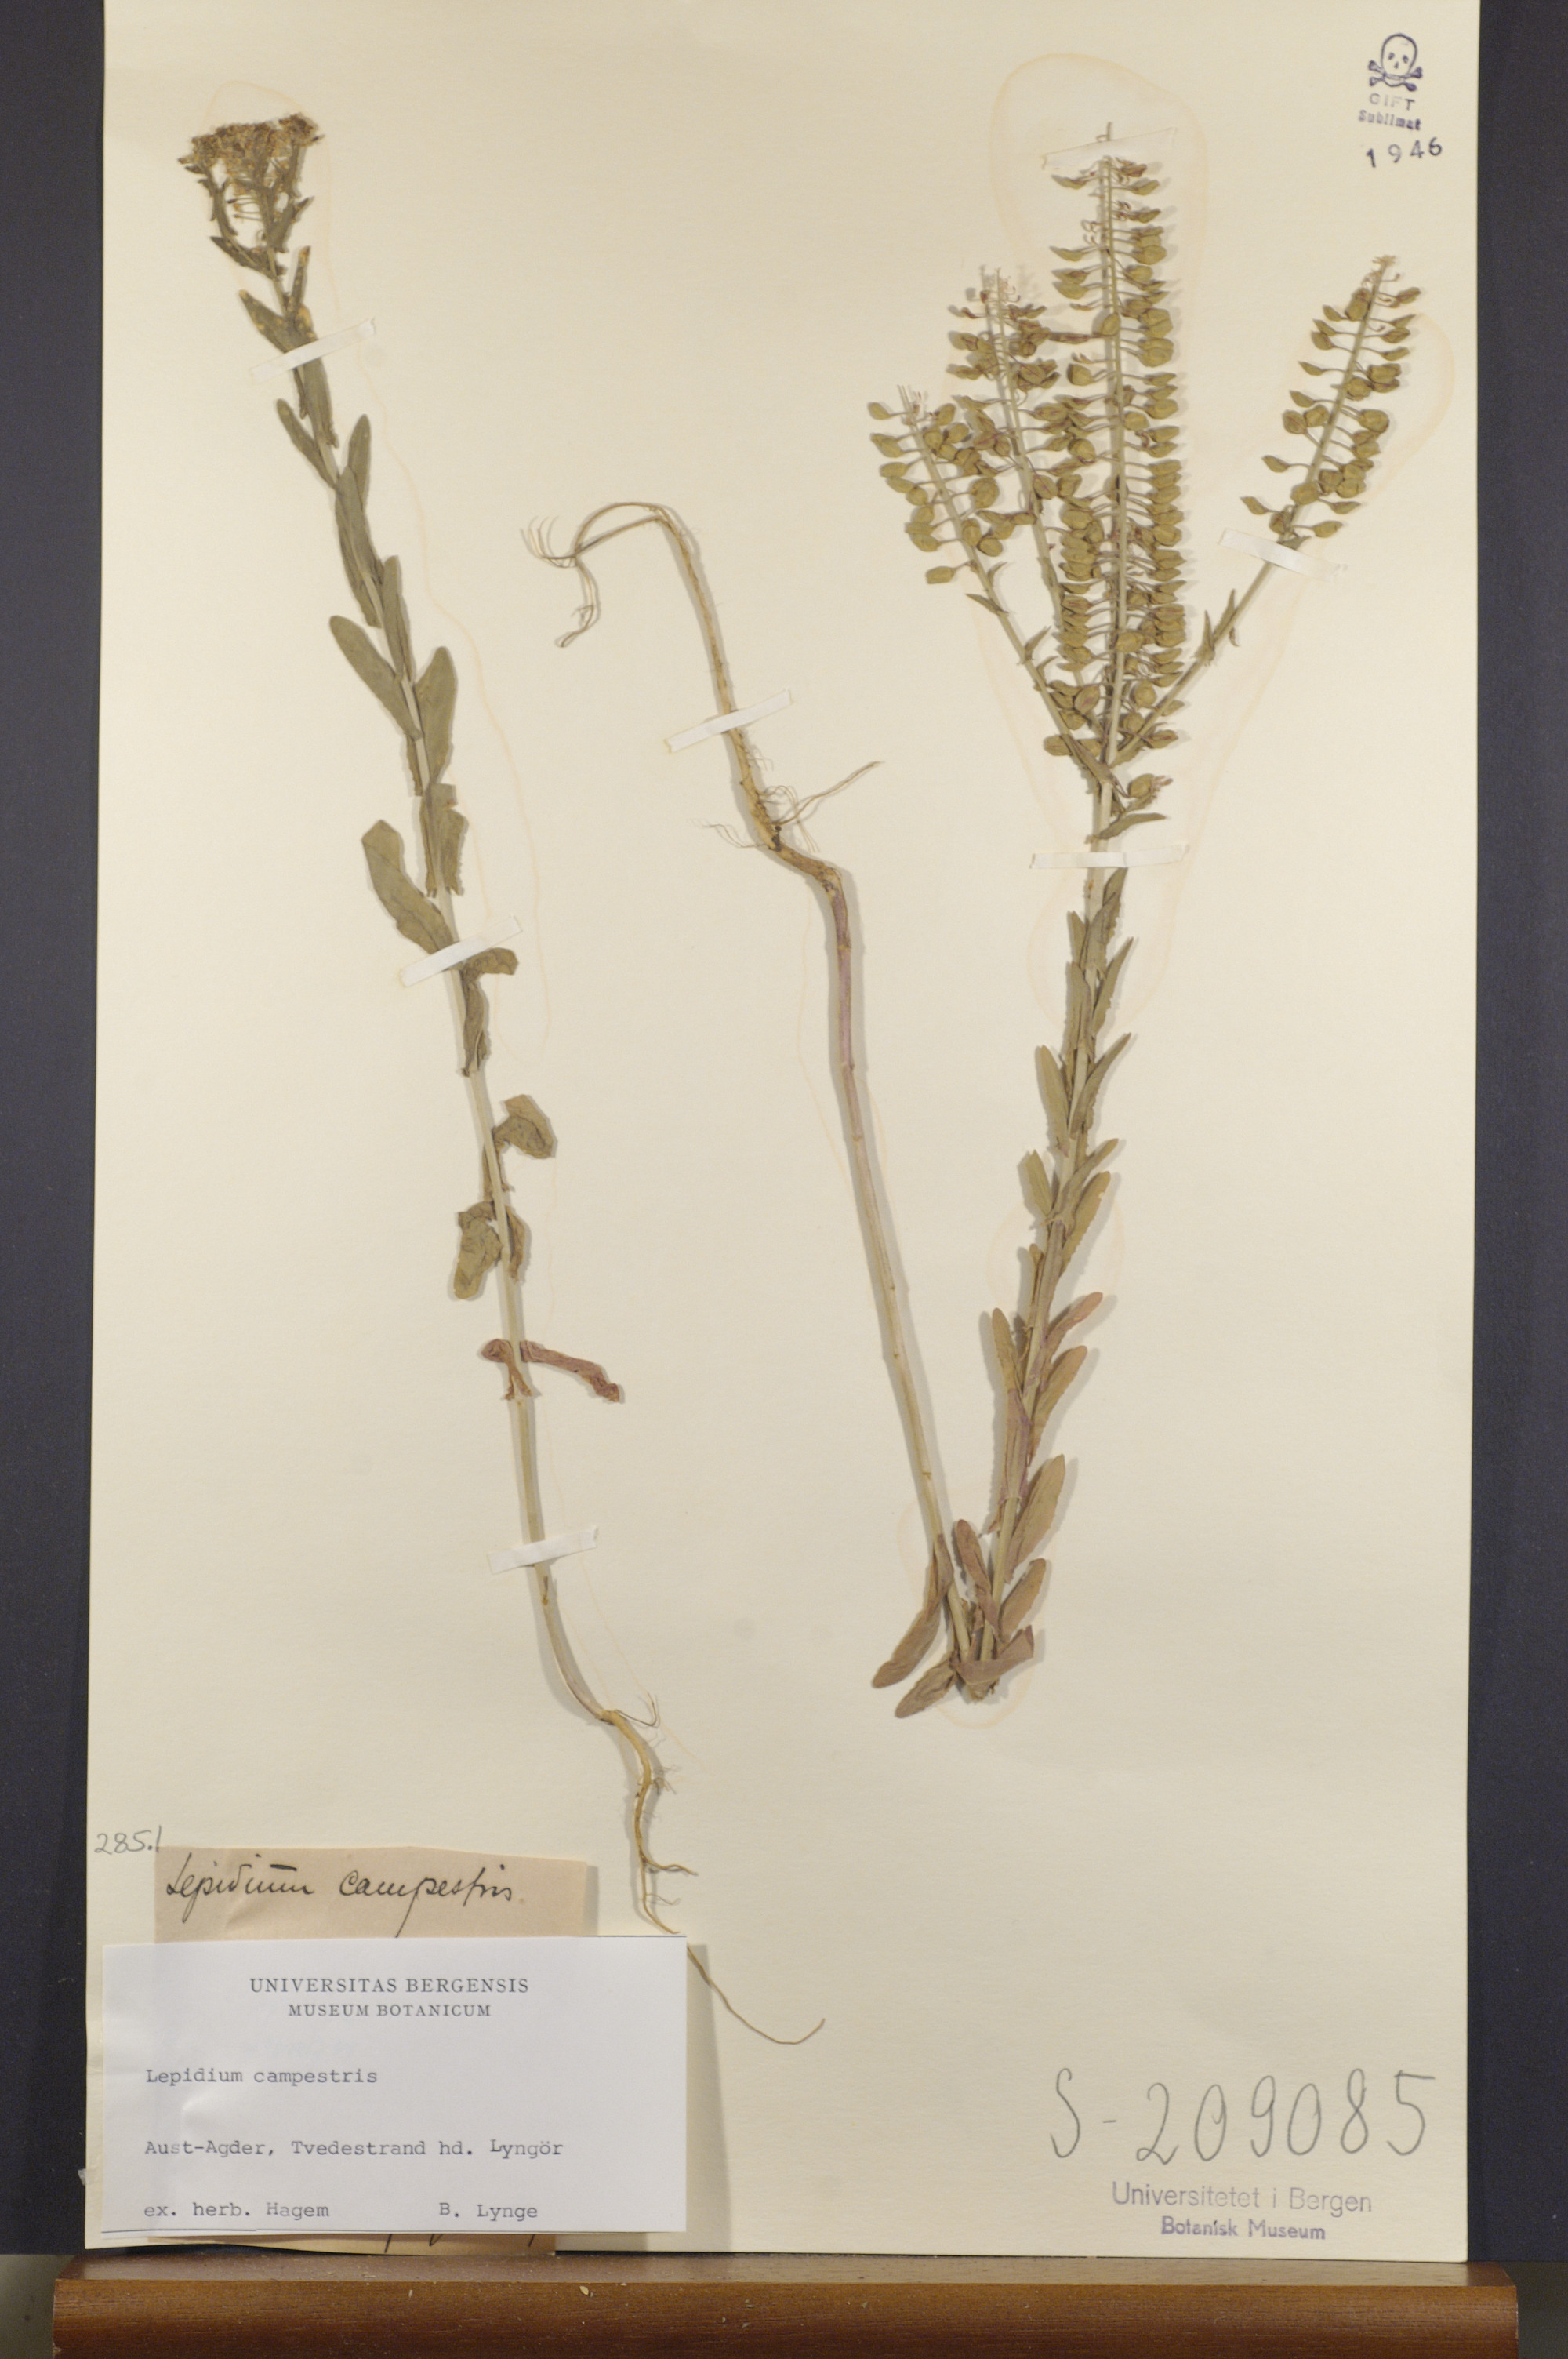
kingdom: Plantae
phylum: Tracheophyta
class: Magnoliopsida
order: Brassicales
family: Brassicaceae
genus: Lepidium
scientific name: Lepidium campestre
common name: Field pepperwort
